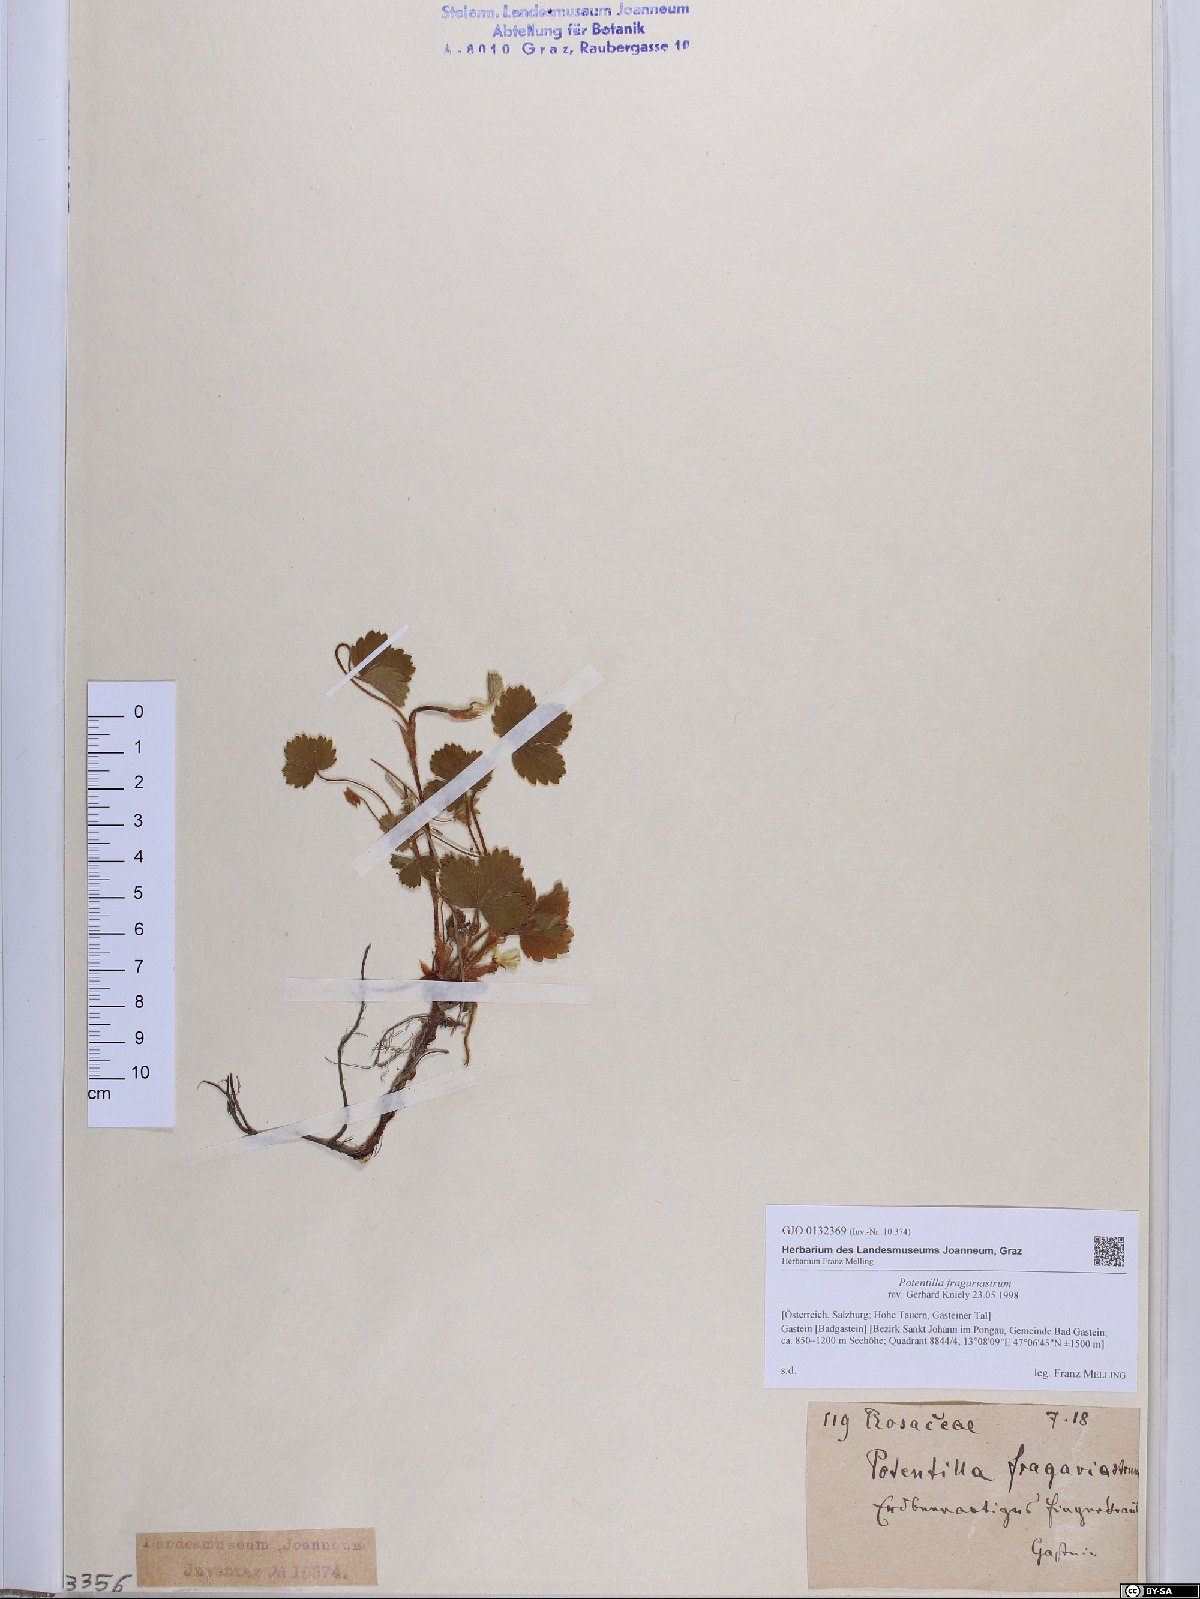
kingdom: Plantae
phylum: Tracheophyta
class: Magnoliopsida
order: Rosales
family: Rosaceae
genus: Potentilla
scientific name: Potentilla sterilis
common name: Barren strawberry
